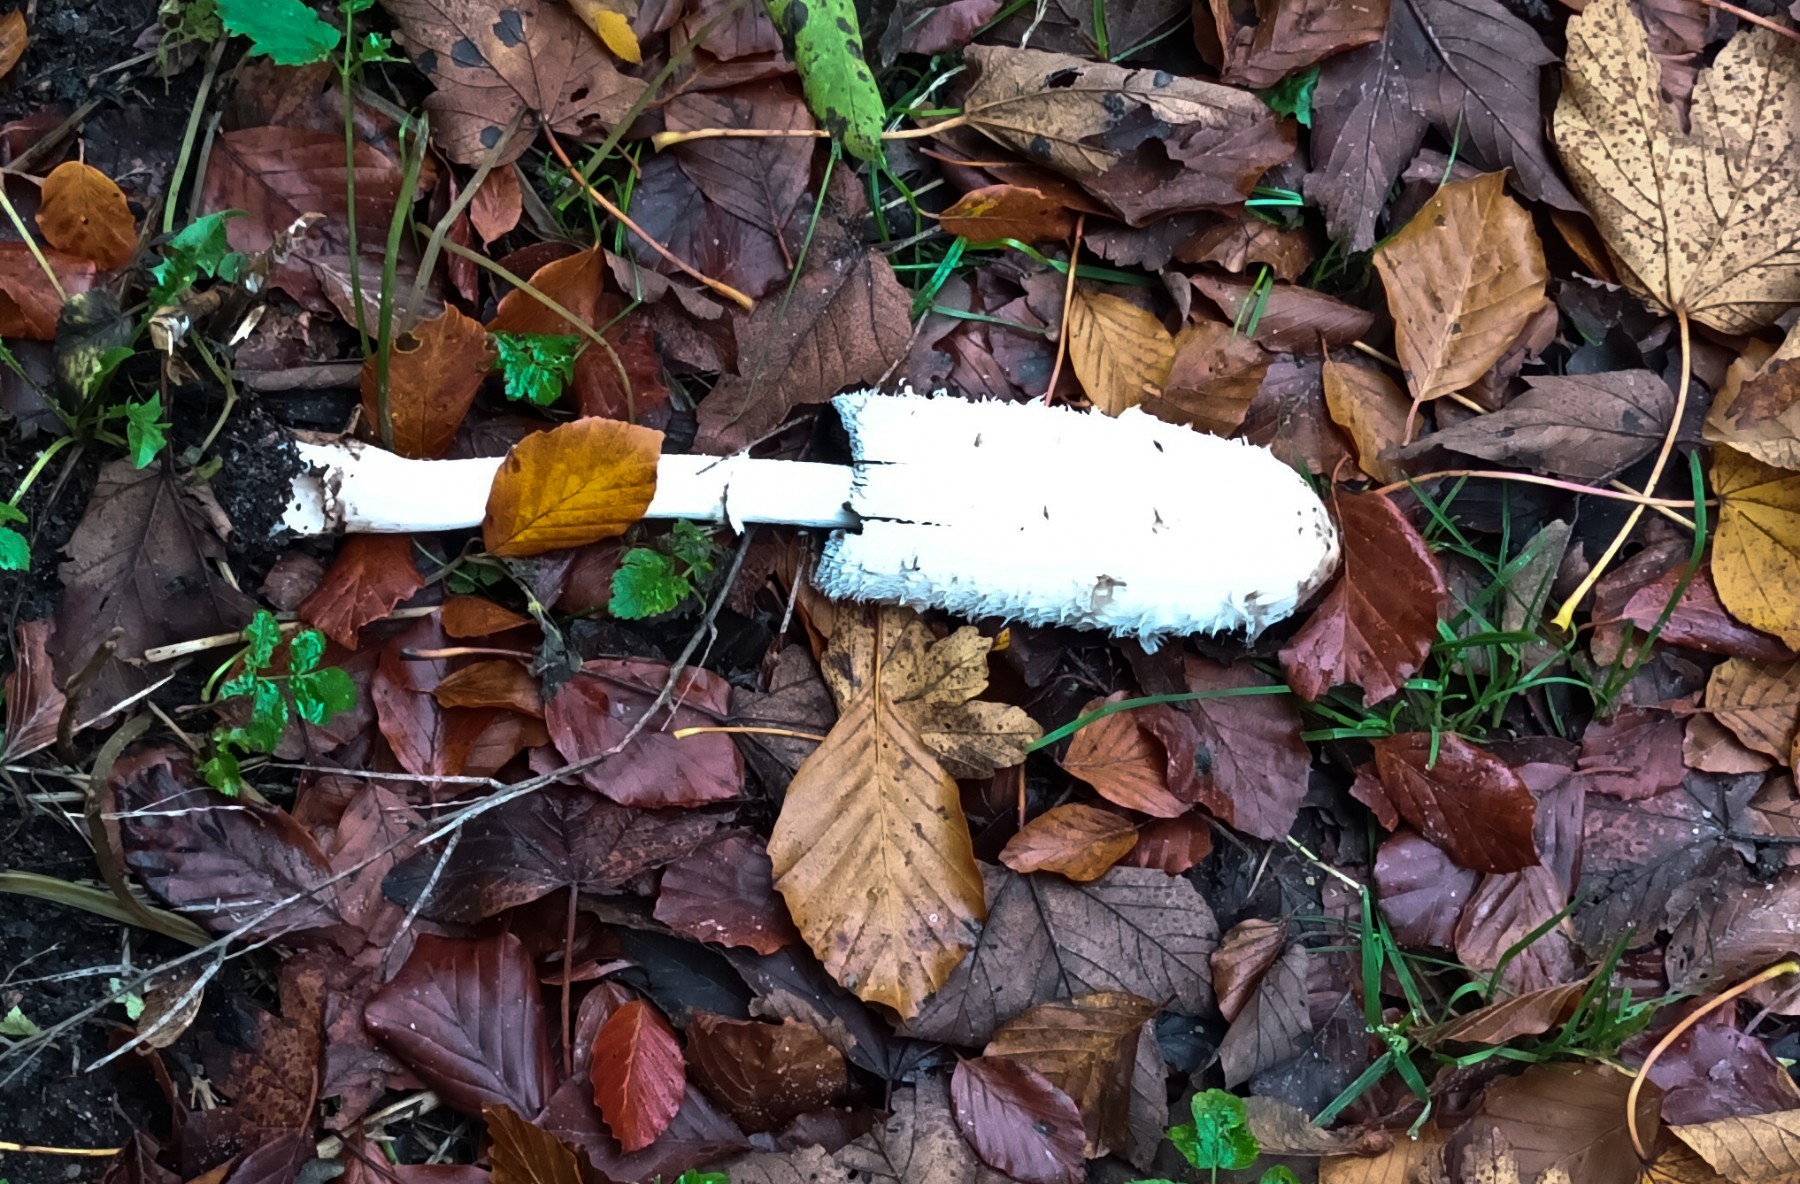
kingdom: Fungi
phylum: Basidiomycota
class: Agaricomycetes
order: Agaricales
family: Agaricaceae
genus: Coprinus
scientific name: Coprinus comatus
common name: stor parykhat
